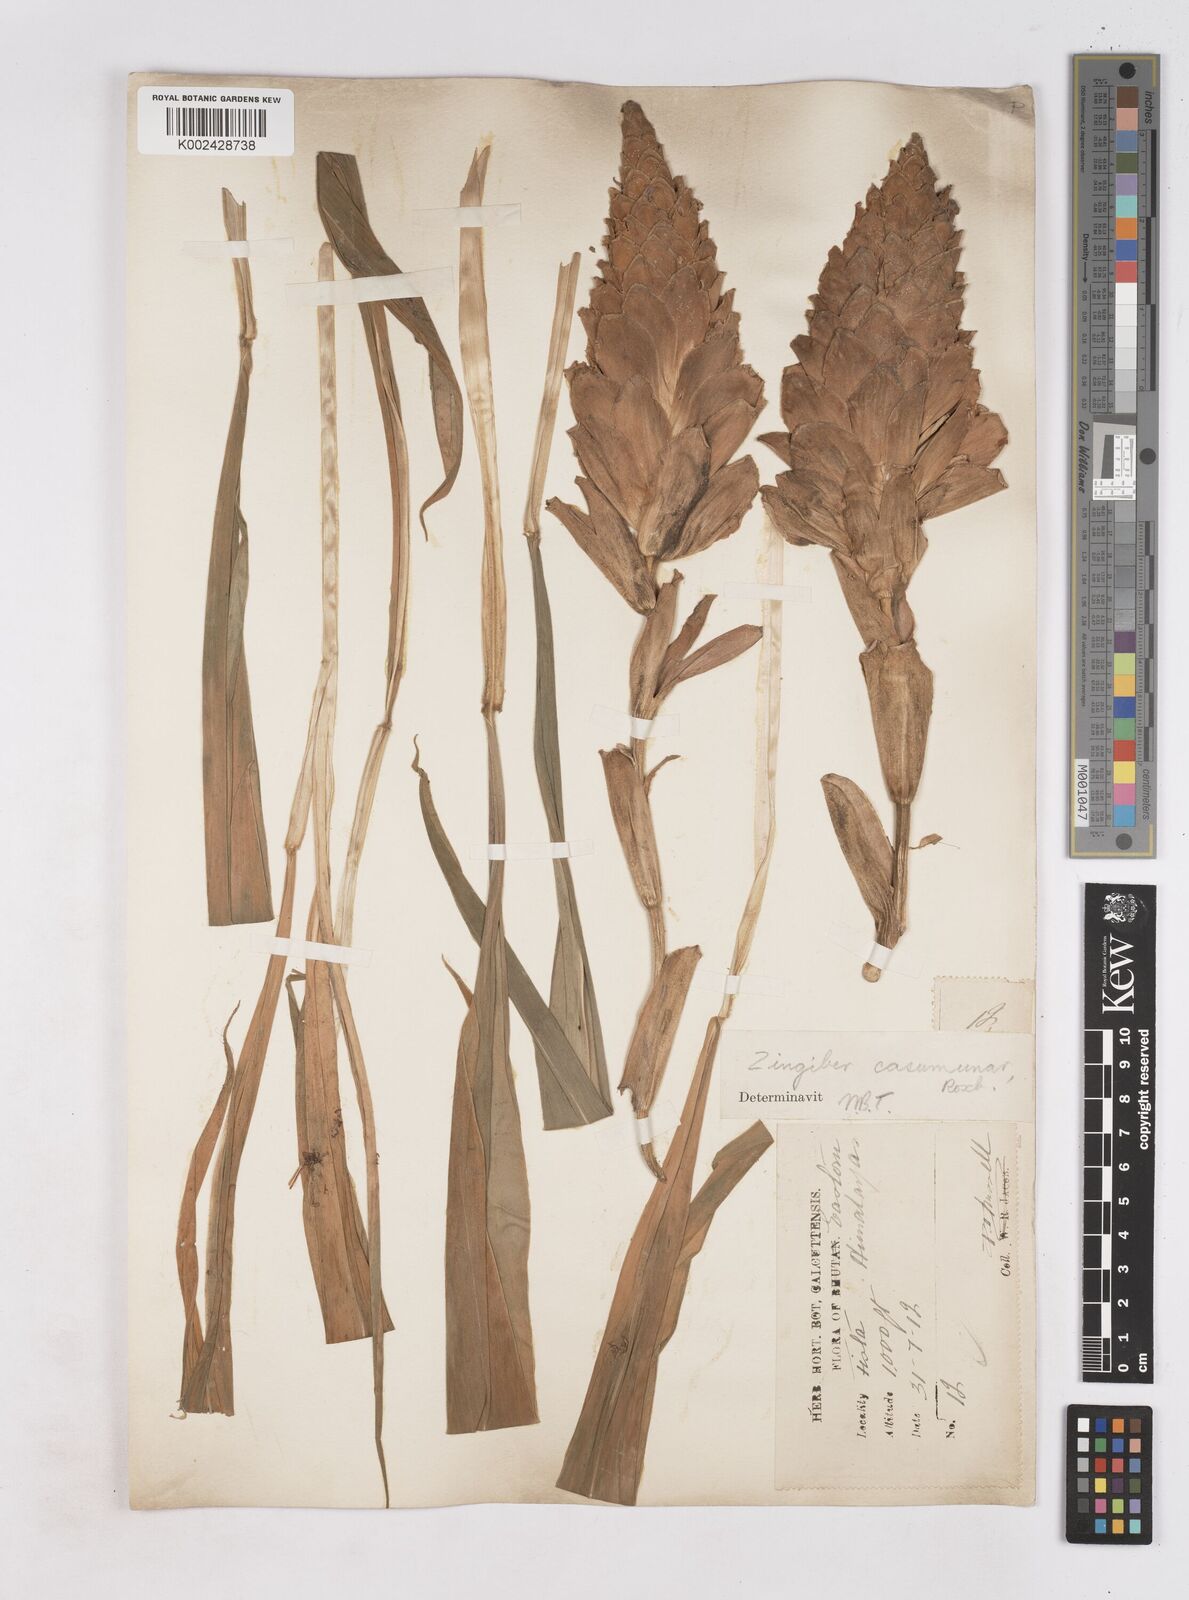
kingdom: Plantae
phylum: Tracheophyta
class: Liliopsida
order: Zingiberales
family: Zingiberaceae
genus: Zingiber
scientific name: Zingiber montanum
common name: Bengal ginger
